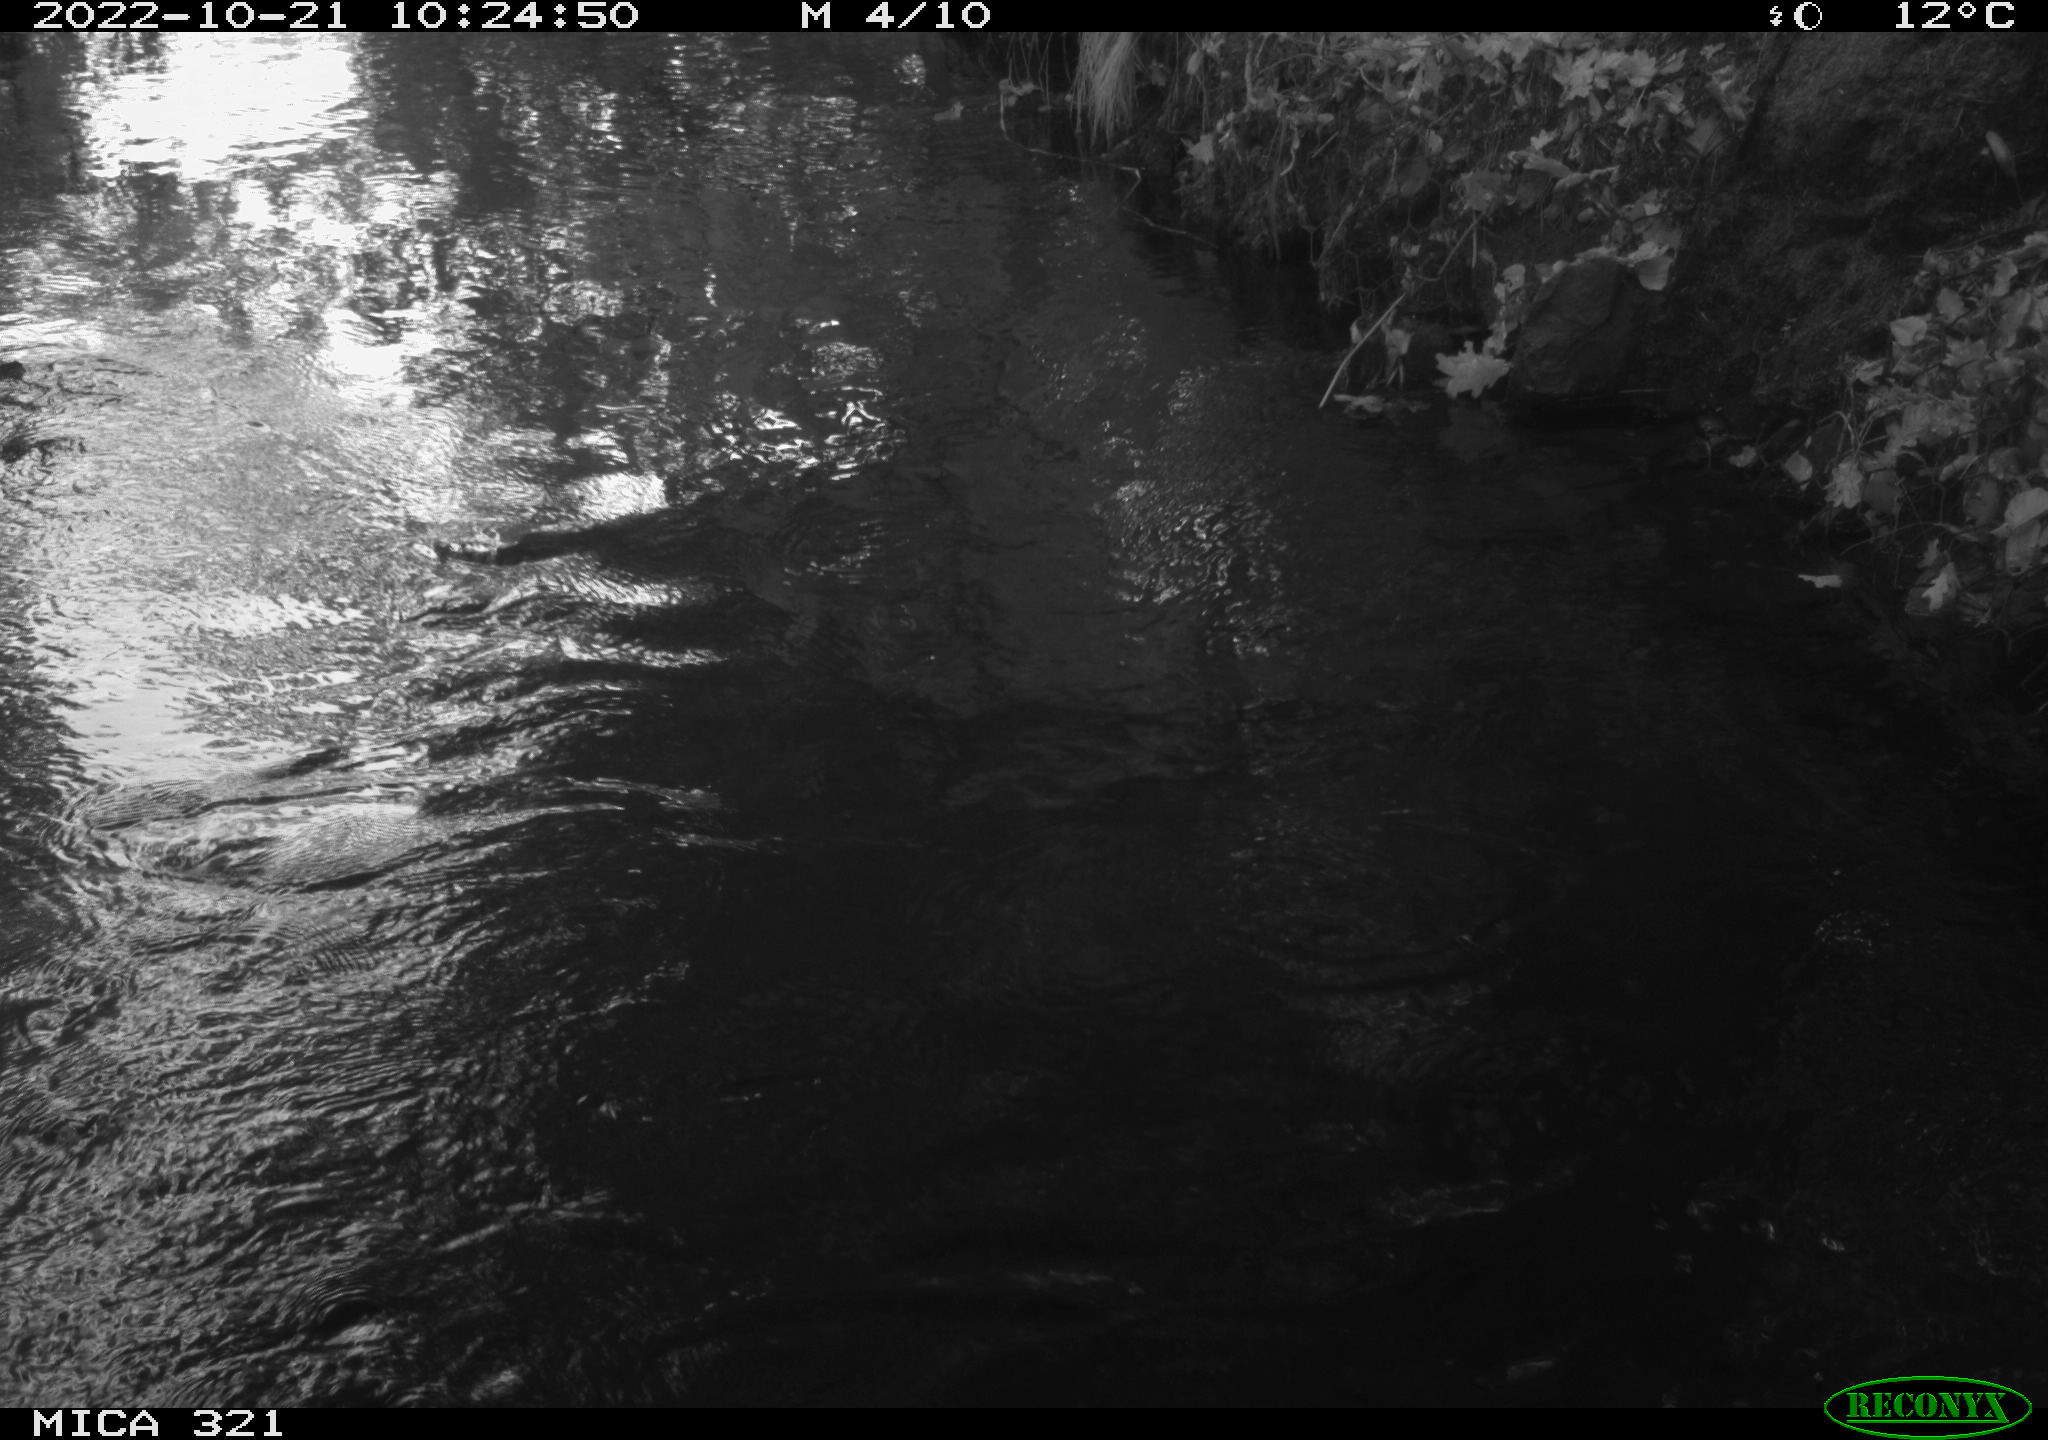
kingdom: Animalia
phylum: Chordata
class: Aves
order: Anseriformes
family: Anatidae
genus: Anas
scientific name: Anas
